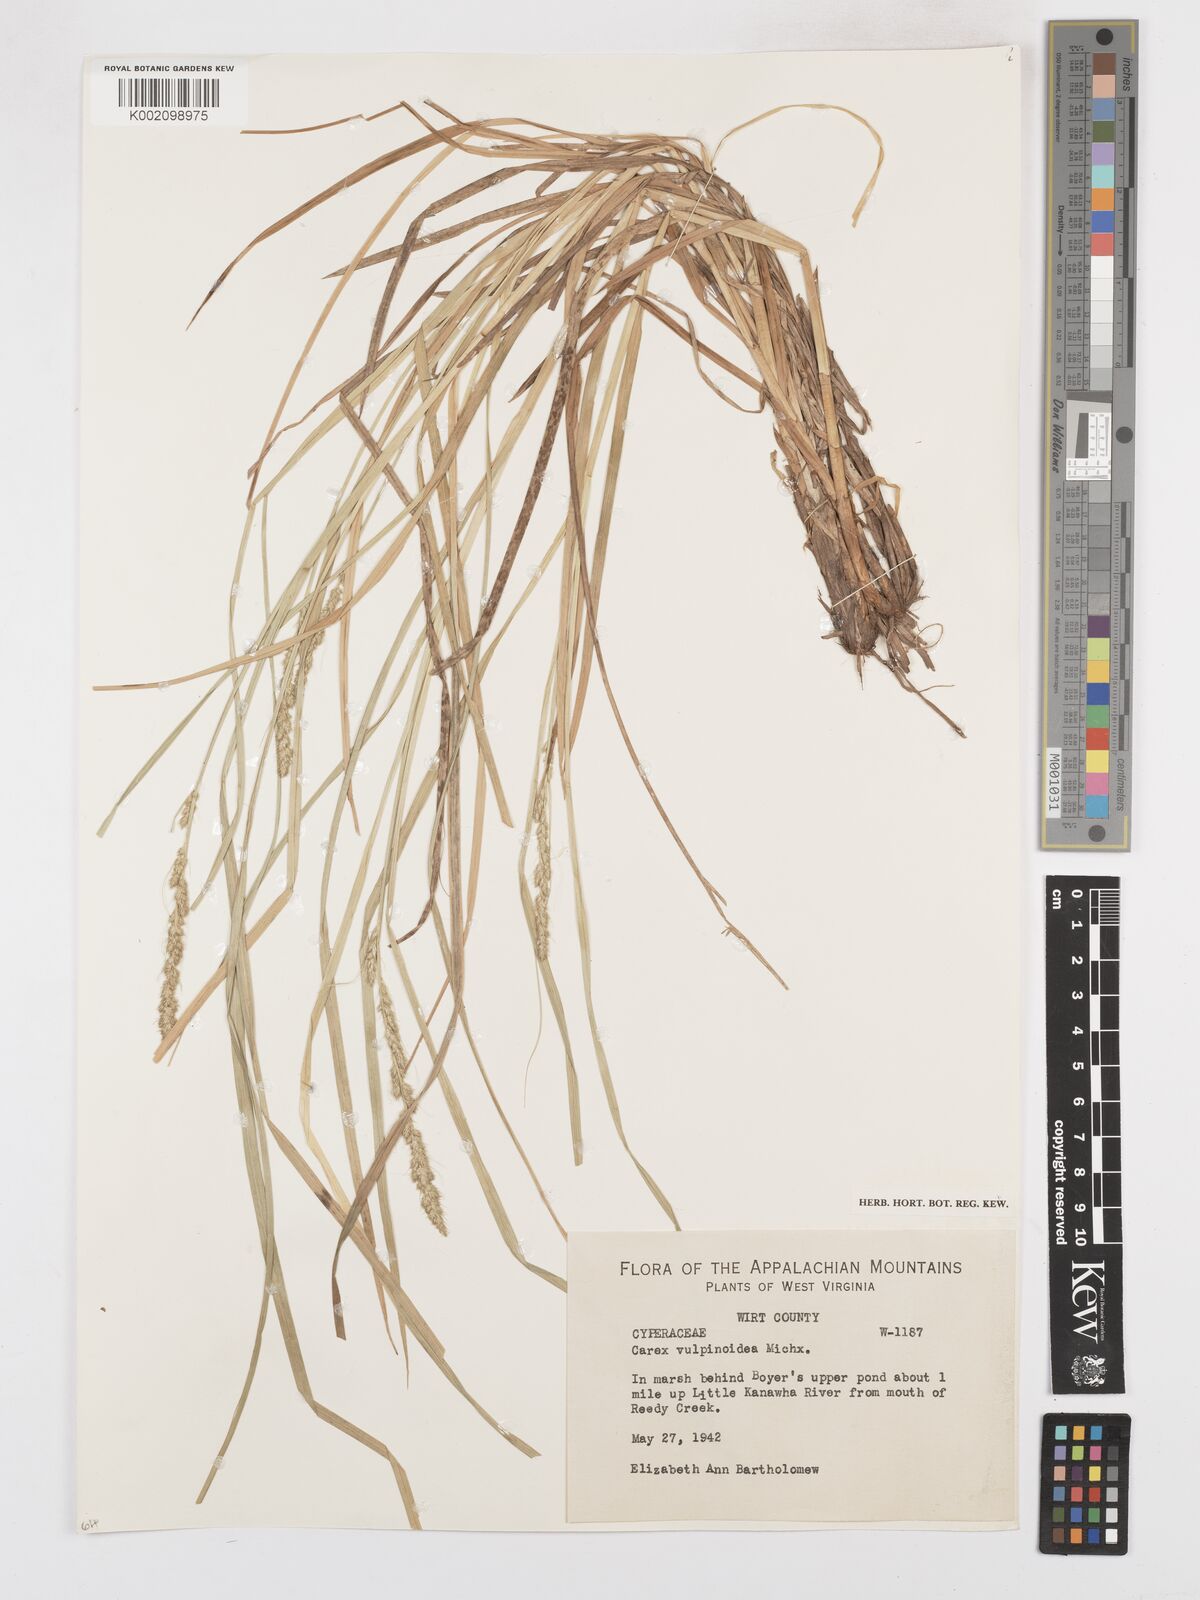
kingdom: Plantae
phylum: Tracheophyta
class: Liliopsida
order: Poales
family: Cyperaceae
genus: Carex
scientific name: Carex vulpinoidea
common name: American fox-sedge
